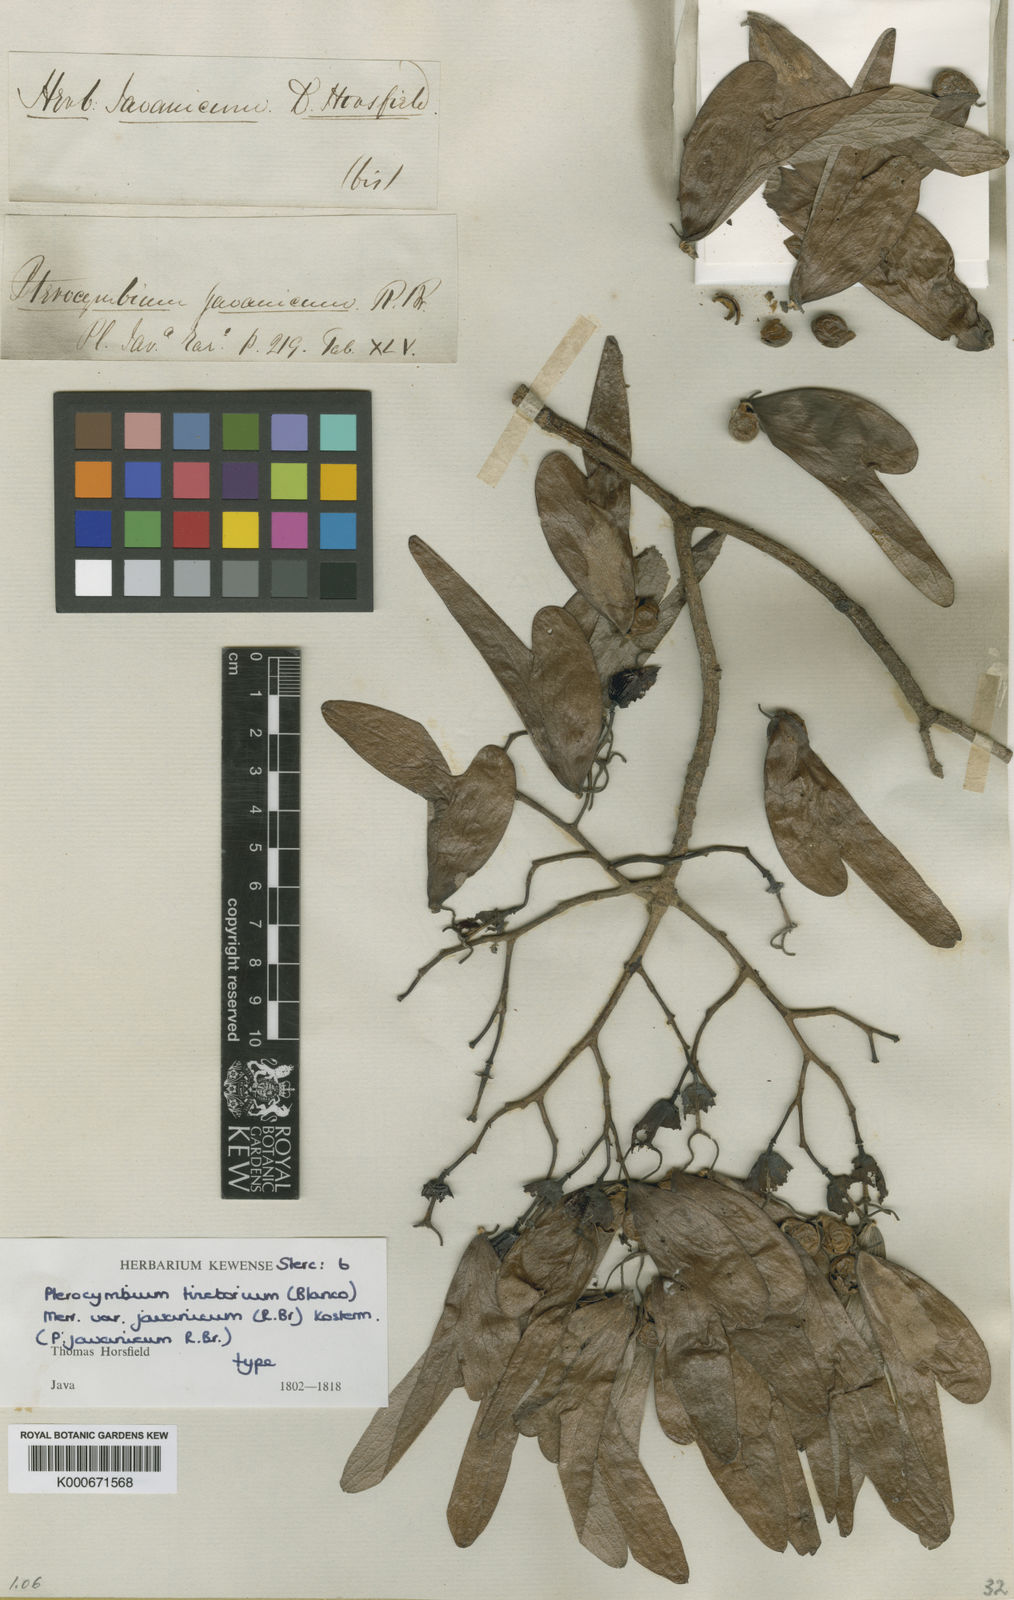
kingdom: Plantae
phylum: Tracheophyta
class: Magnoliopsida
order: Malvales
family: Malvaceae
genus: Pterocymbium
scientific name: Pterocymbium tinctorium
